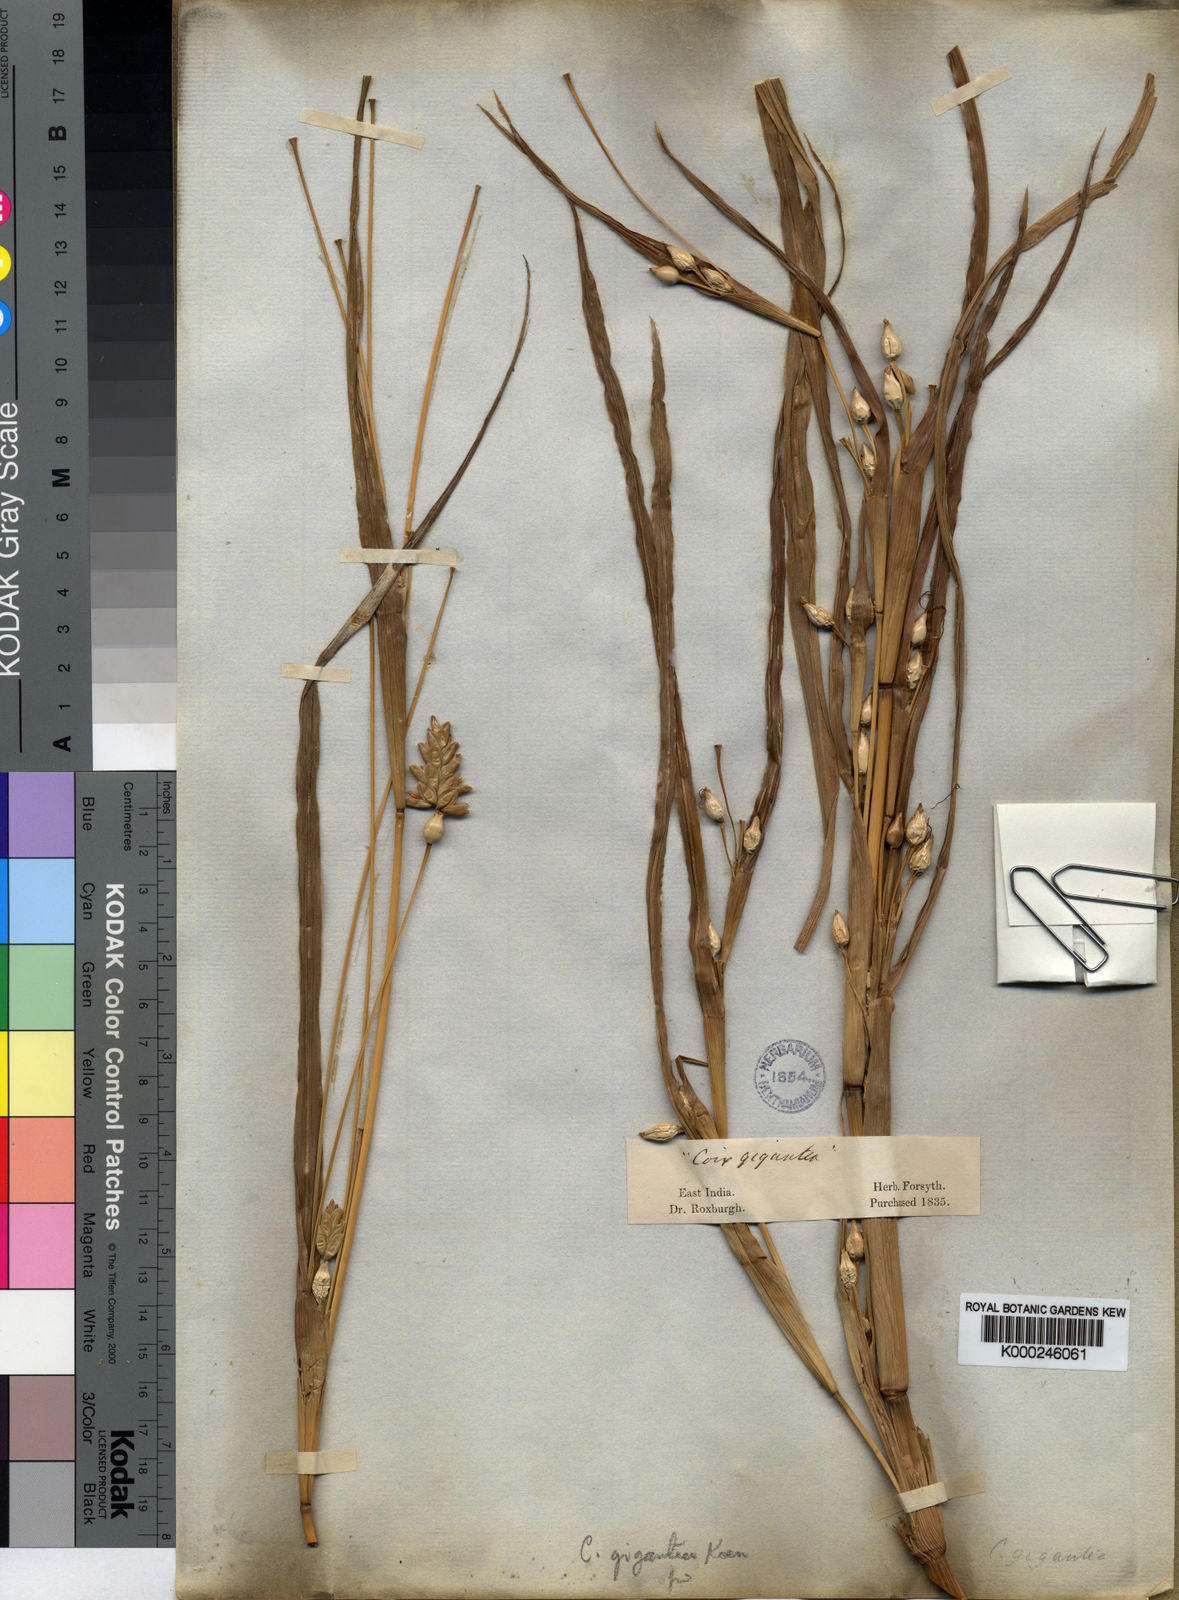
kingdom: Plantae
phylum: Tracheophyta
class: Liliopsida
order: Poales
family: Poaceae
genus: Coix
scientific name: Coix aquatica
